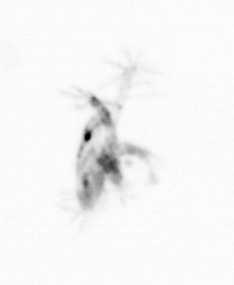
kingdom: Animalia
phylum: Arthropoda
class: Copepoda
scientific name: Copepoda
